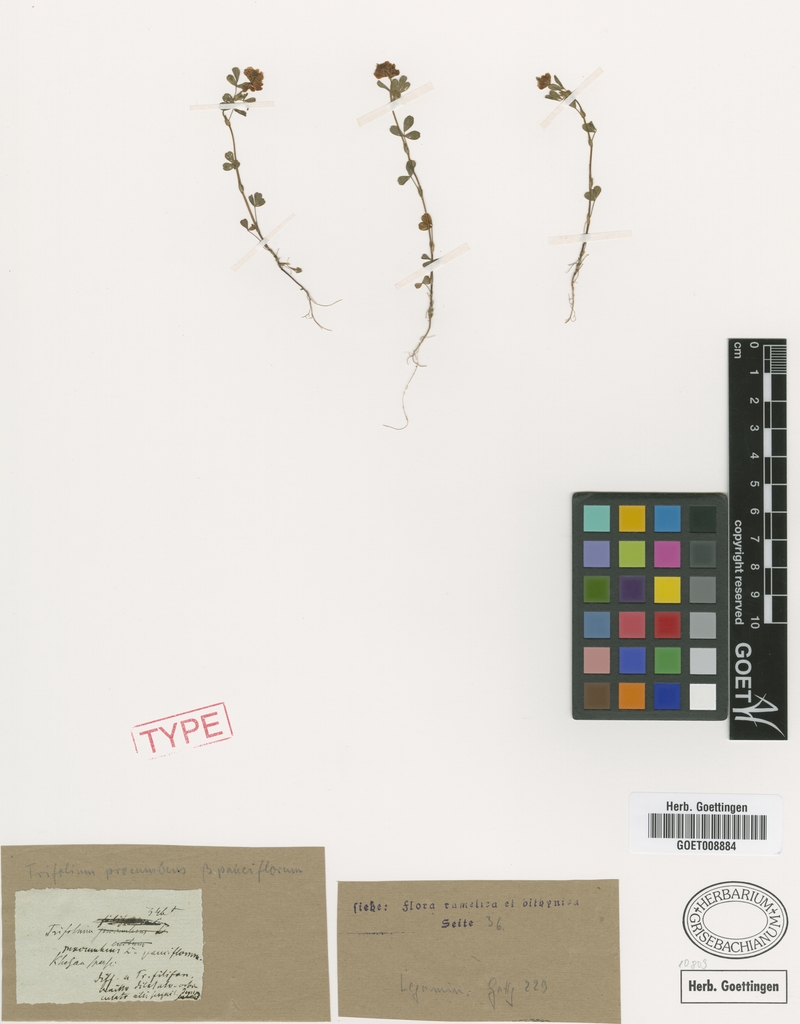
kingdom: Plantae
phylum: Tracheophyta
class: Magnoliopsida
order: Fabales
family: Fabaceae
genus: Trifolium
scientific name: Trifolium brutium
